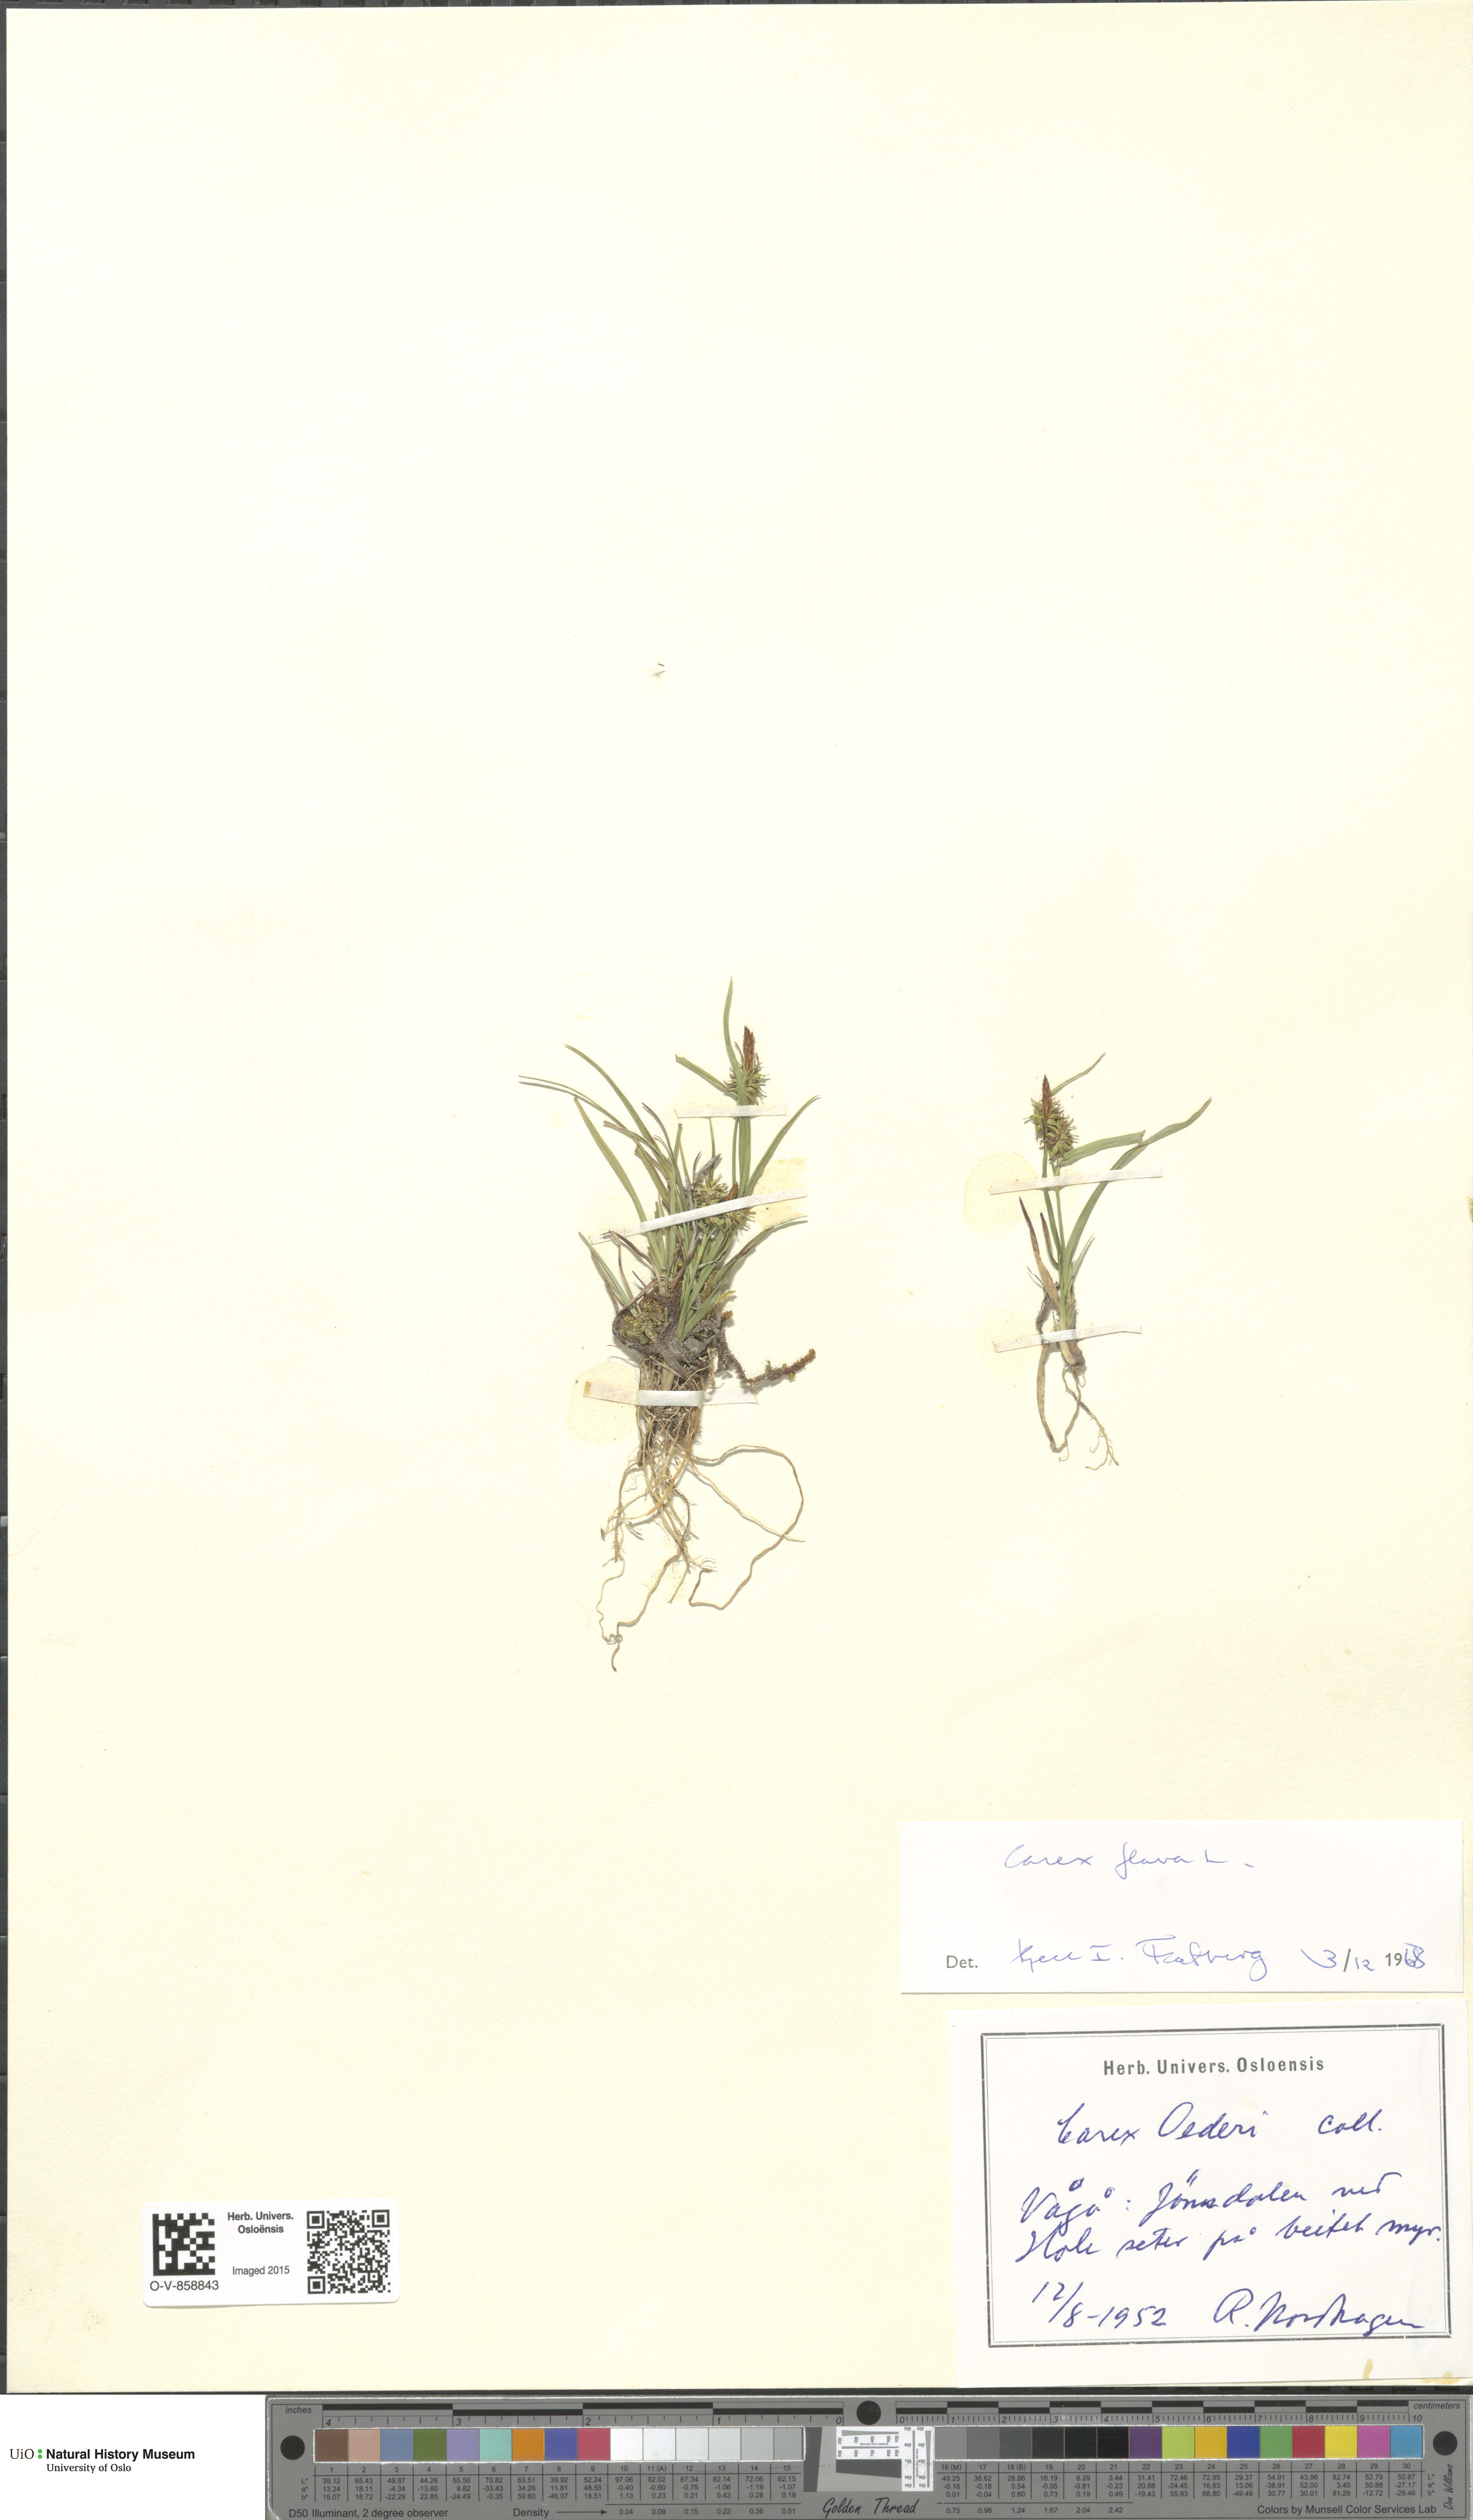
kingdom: Plantae
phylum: Tracheophyta
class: Liliopsida
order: Poales
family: Cyperaceae
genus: Carex
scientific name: Carex flava
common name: Large yellow-sedge
